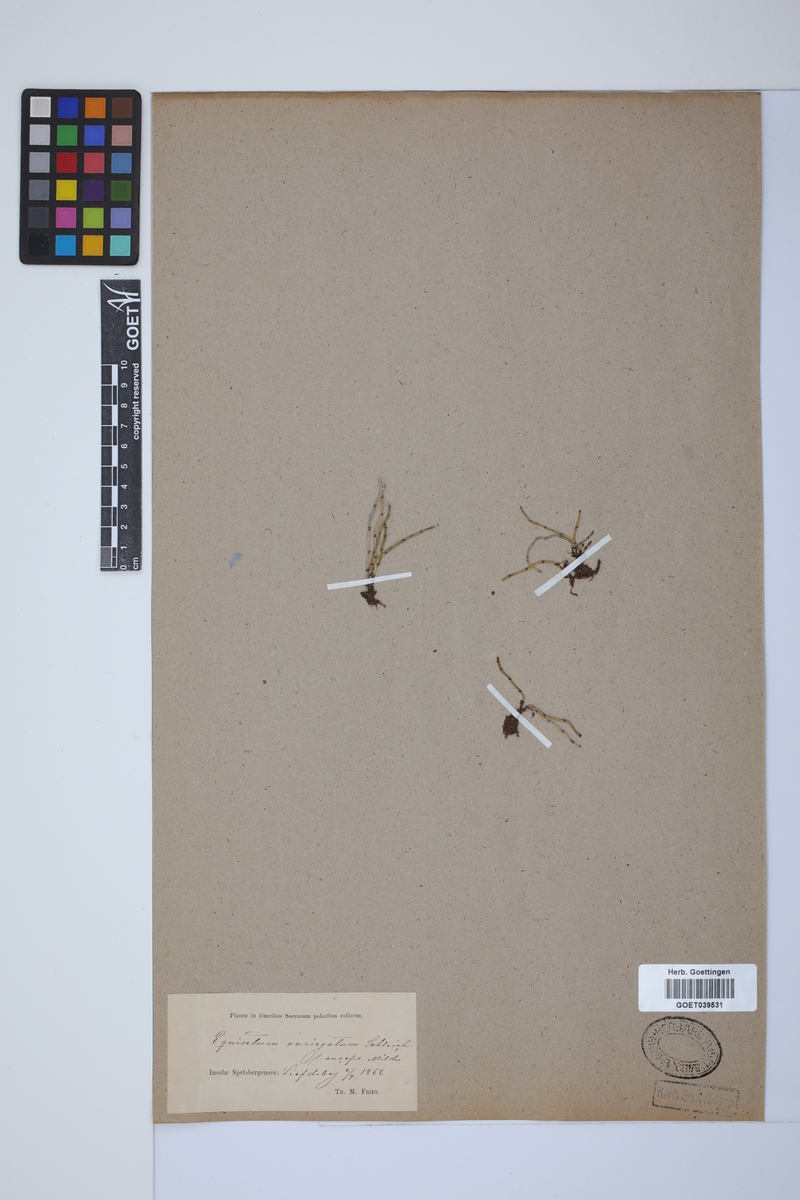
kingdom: Plantae
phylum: Tracheophyta
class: Polypodiopsida
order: Equisetales
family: Equisetaceae
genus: Equisetum
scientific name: Equisetum variegatum
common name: Variegated horsetail
